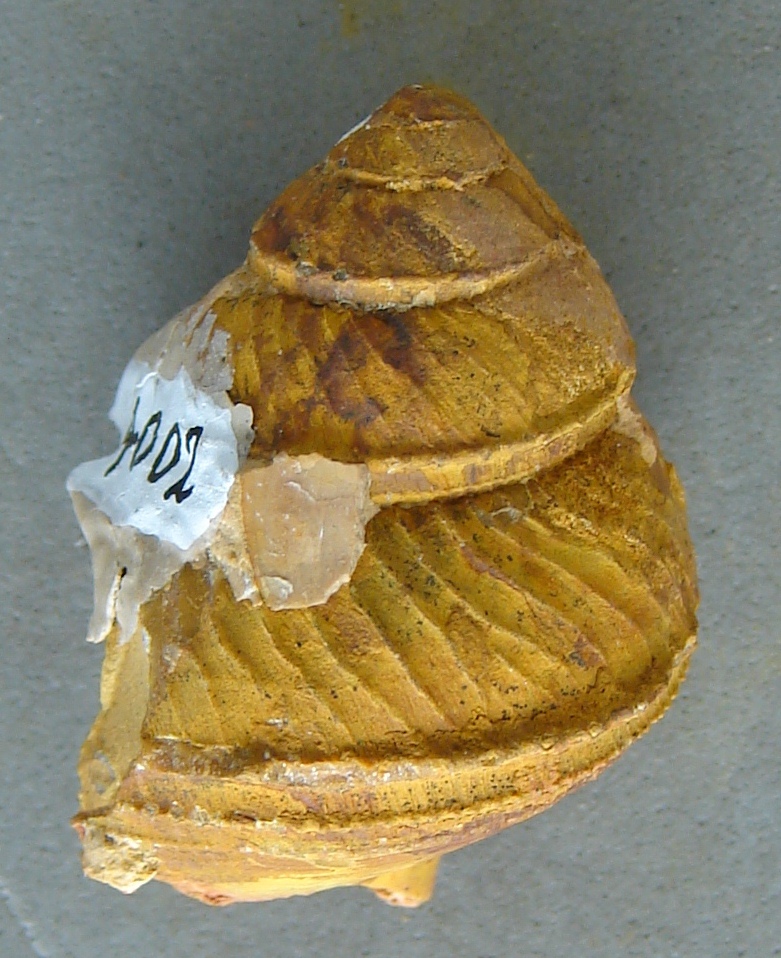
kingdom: Animalia
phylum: Mollusca
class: Gastropoda
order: Seguenziida
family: Eucyclidae
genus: Eucyclomphalus
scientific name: Eucyclomphalus
